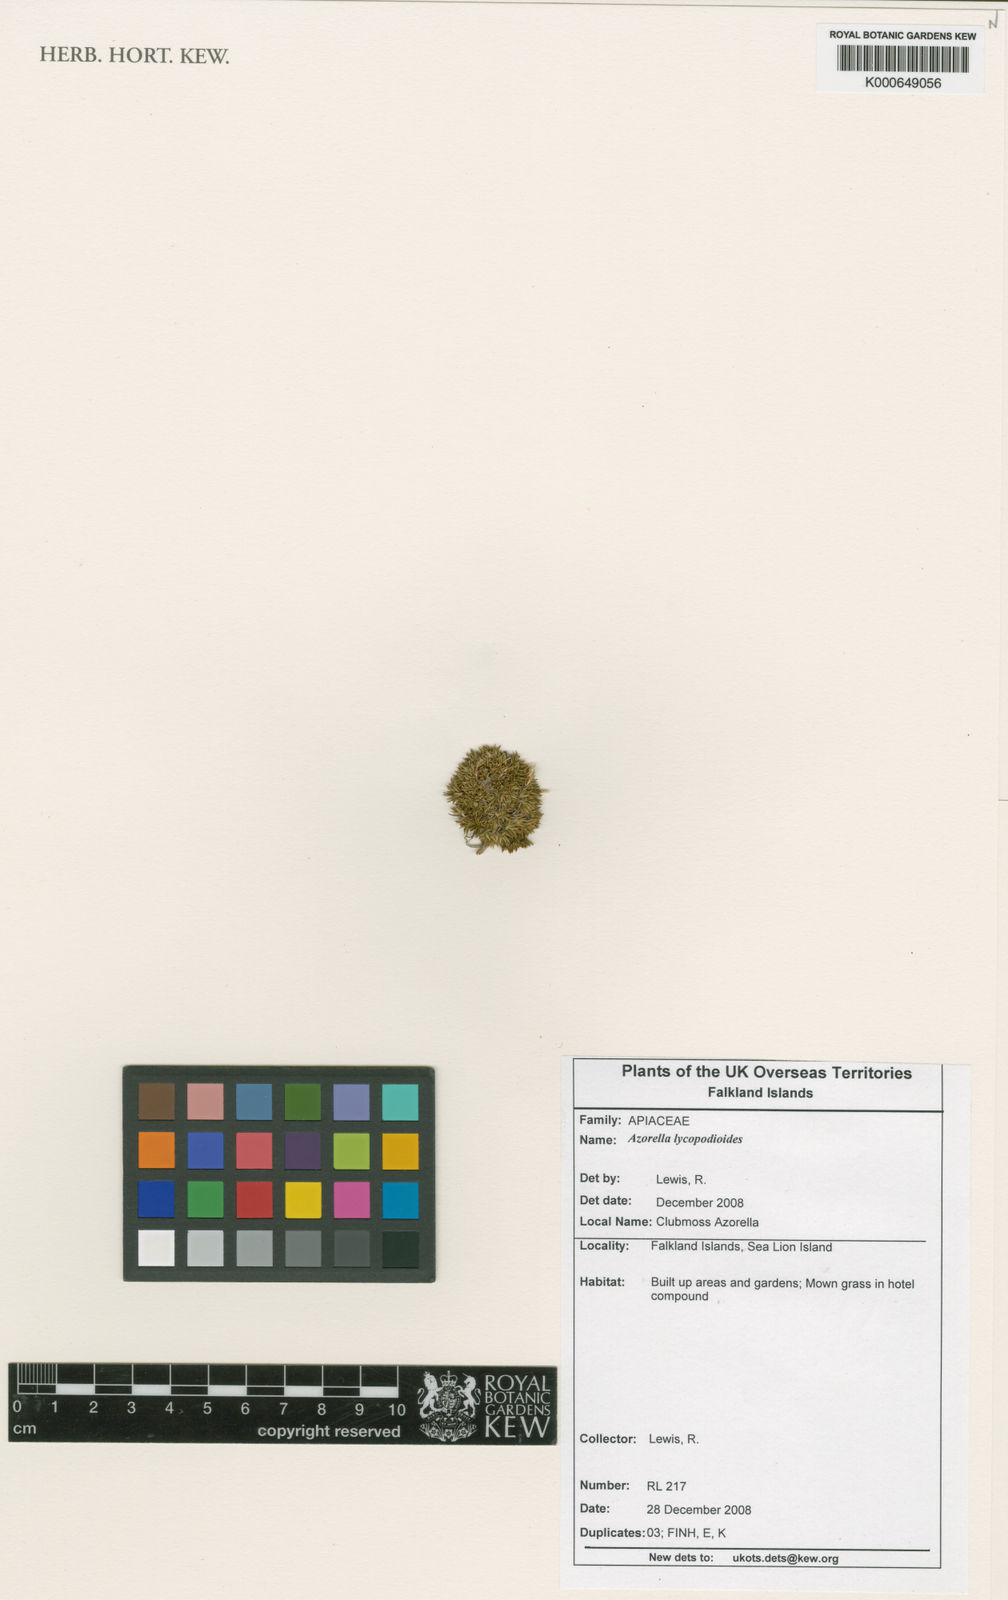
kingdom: Plantae
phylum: Tracheophyta
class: Magnoliopsida
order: Apiales
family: Apiaceae
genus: Azorella
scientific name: Azorella lycopodioides
